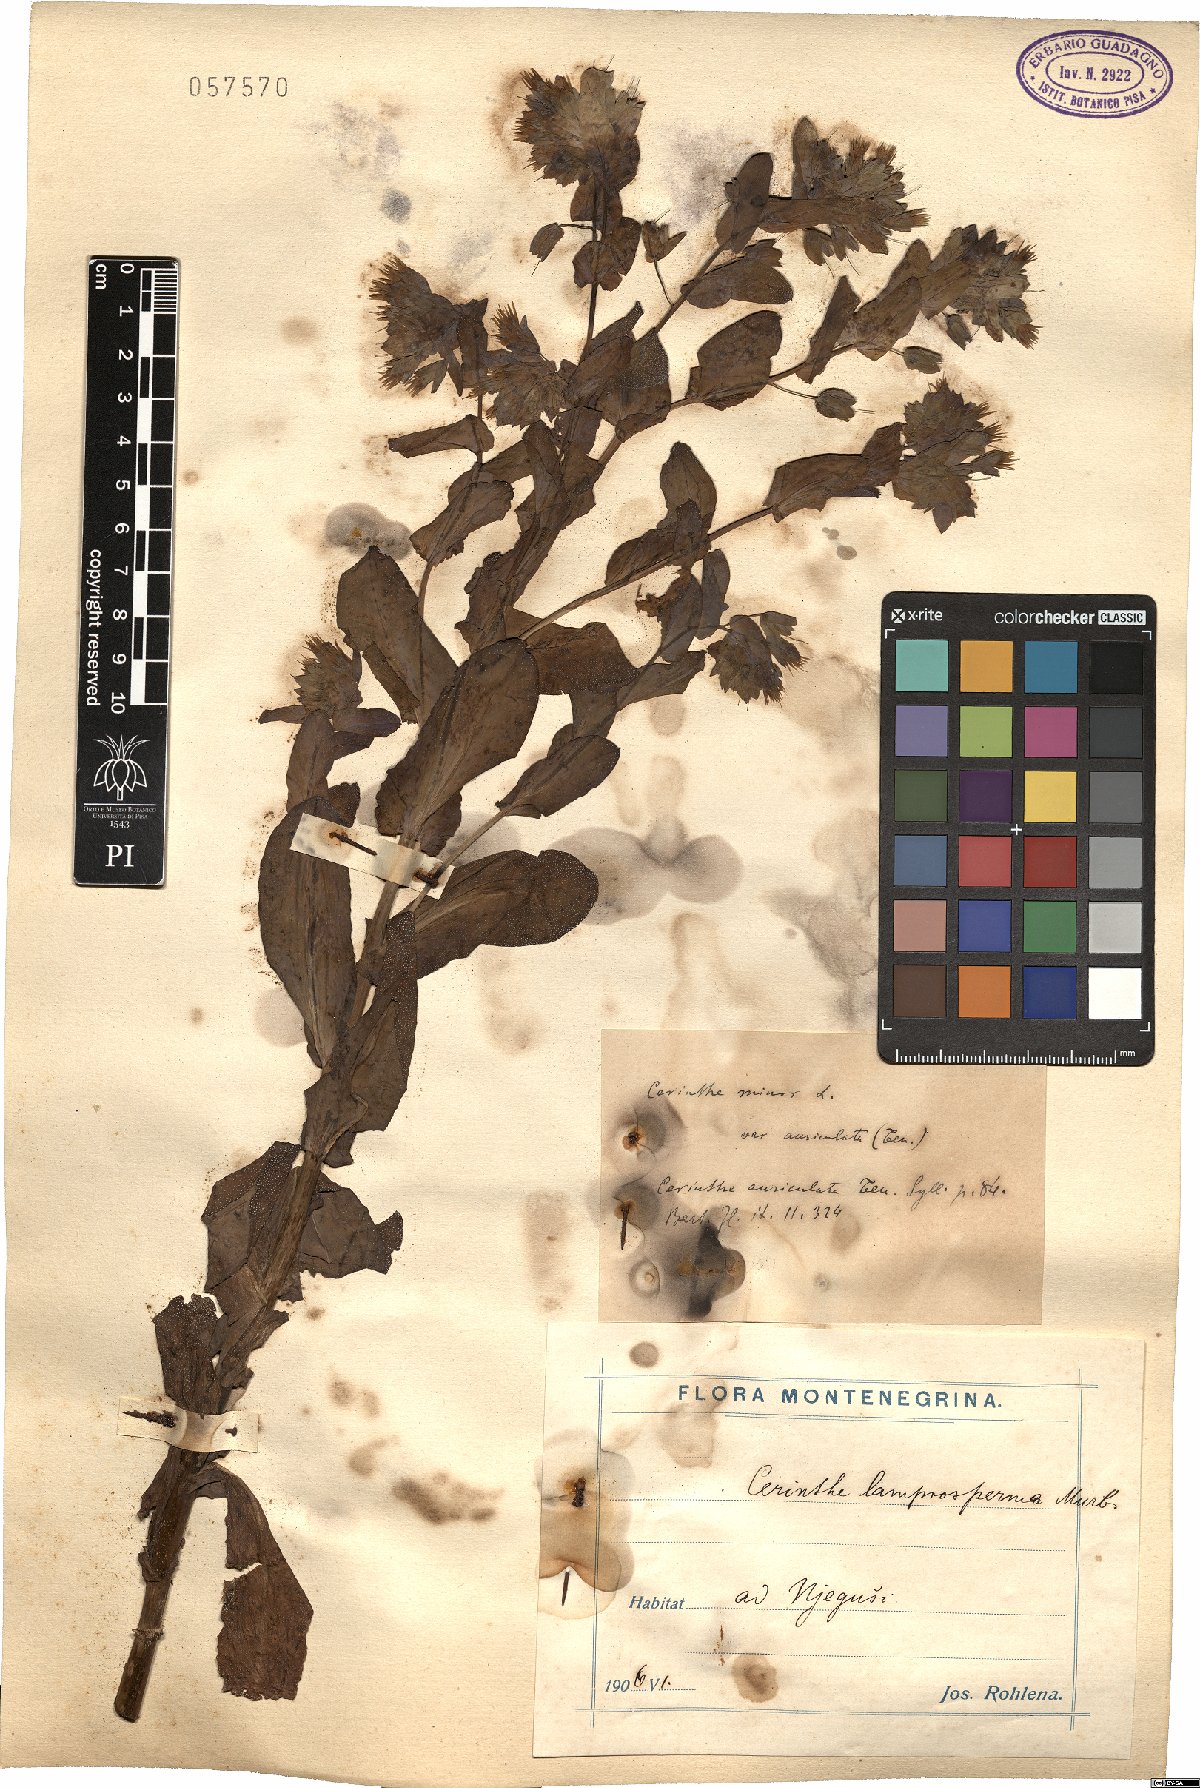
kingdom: Plantae
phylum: Tracheophyta
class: Magnoliopsida
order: Boraginales
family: Boraginaceae
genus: Cerinthe
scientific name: Cerinthe minor
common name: Lesser honeywort
